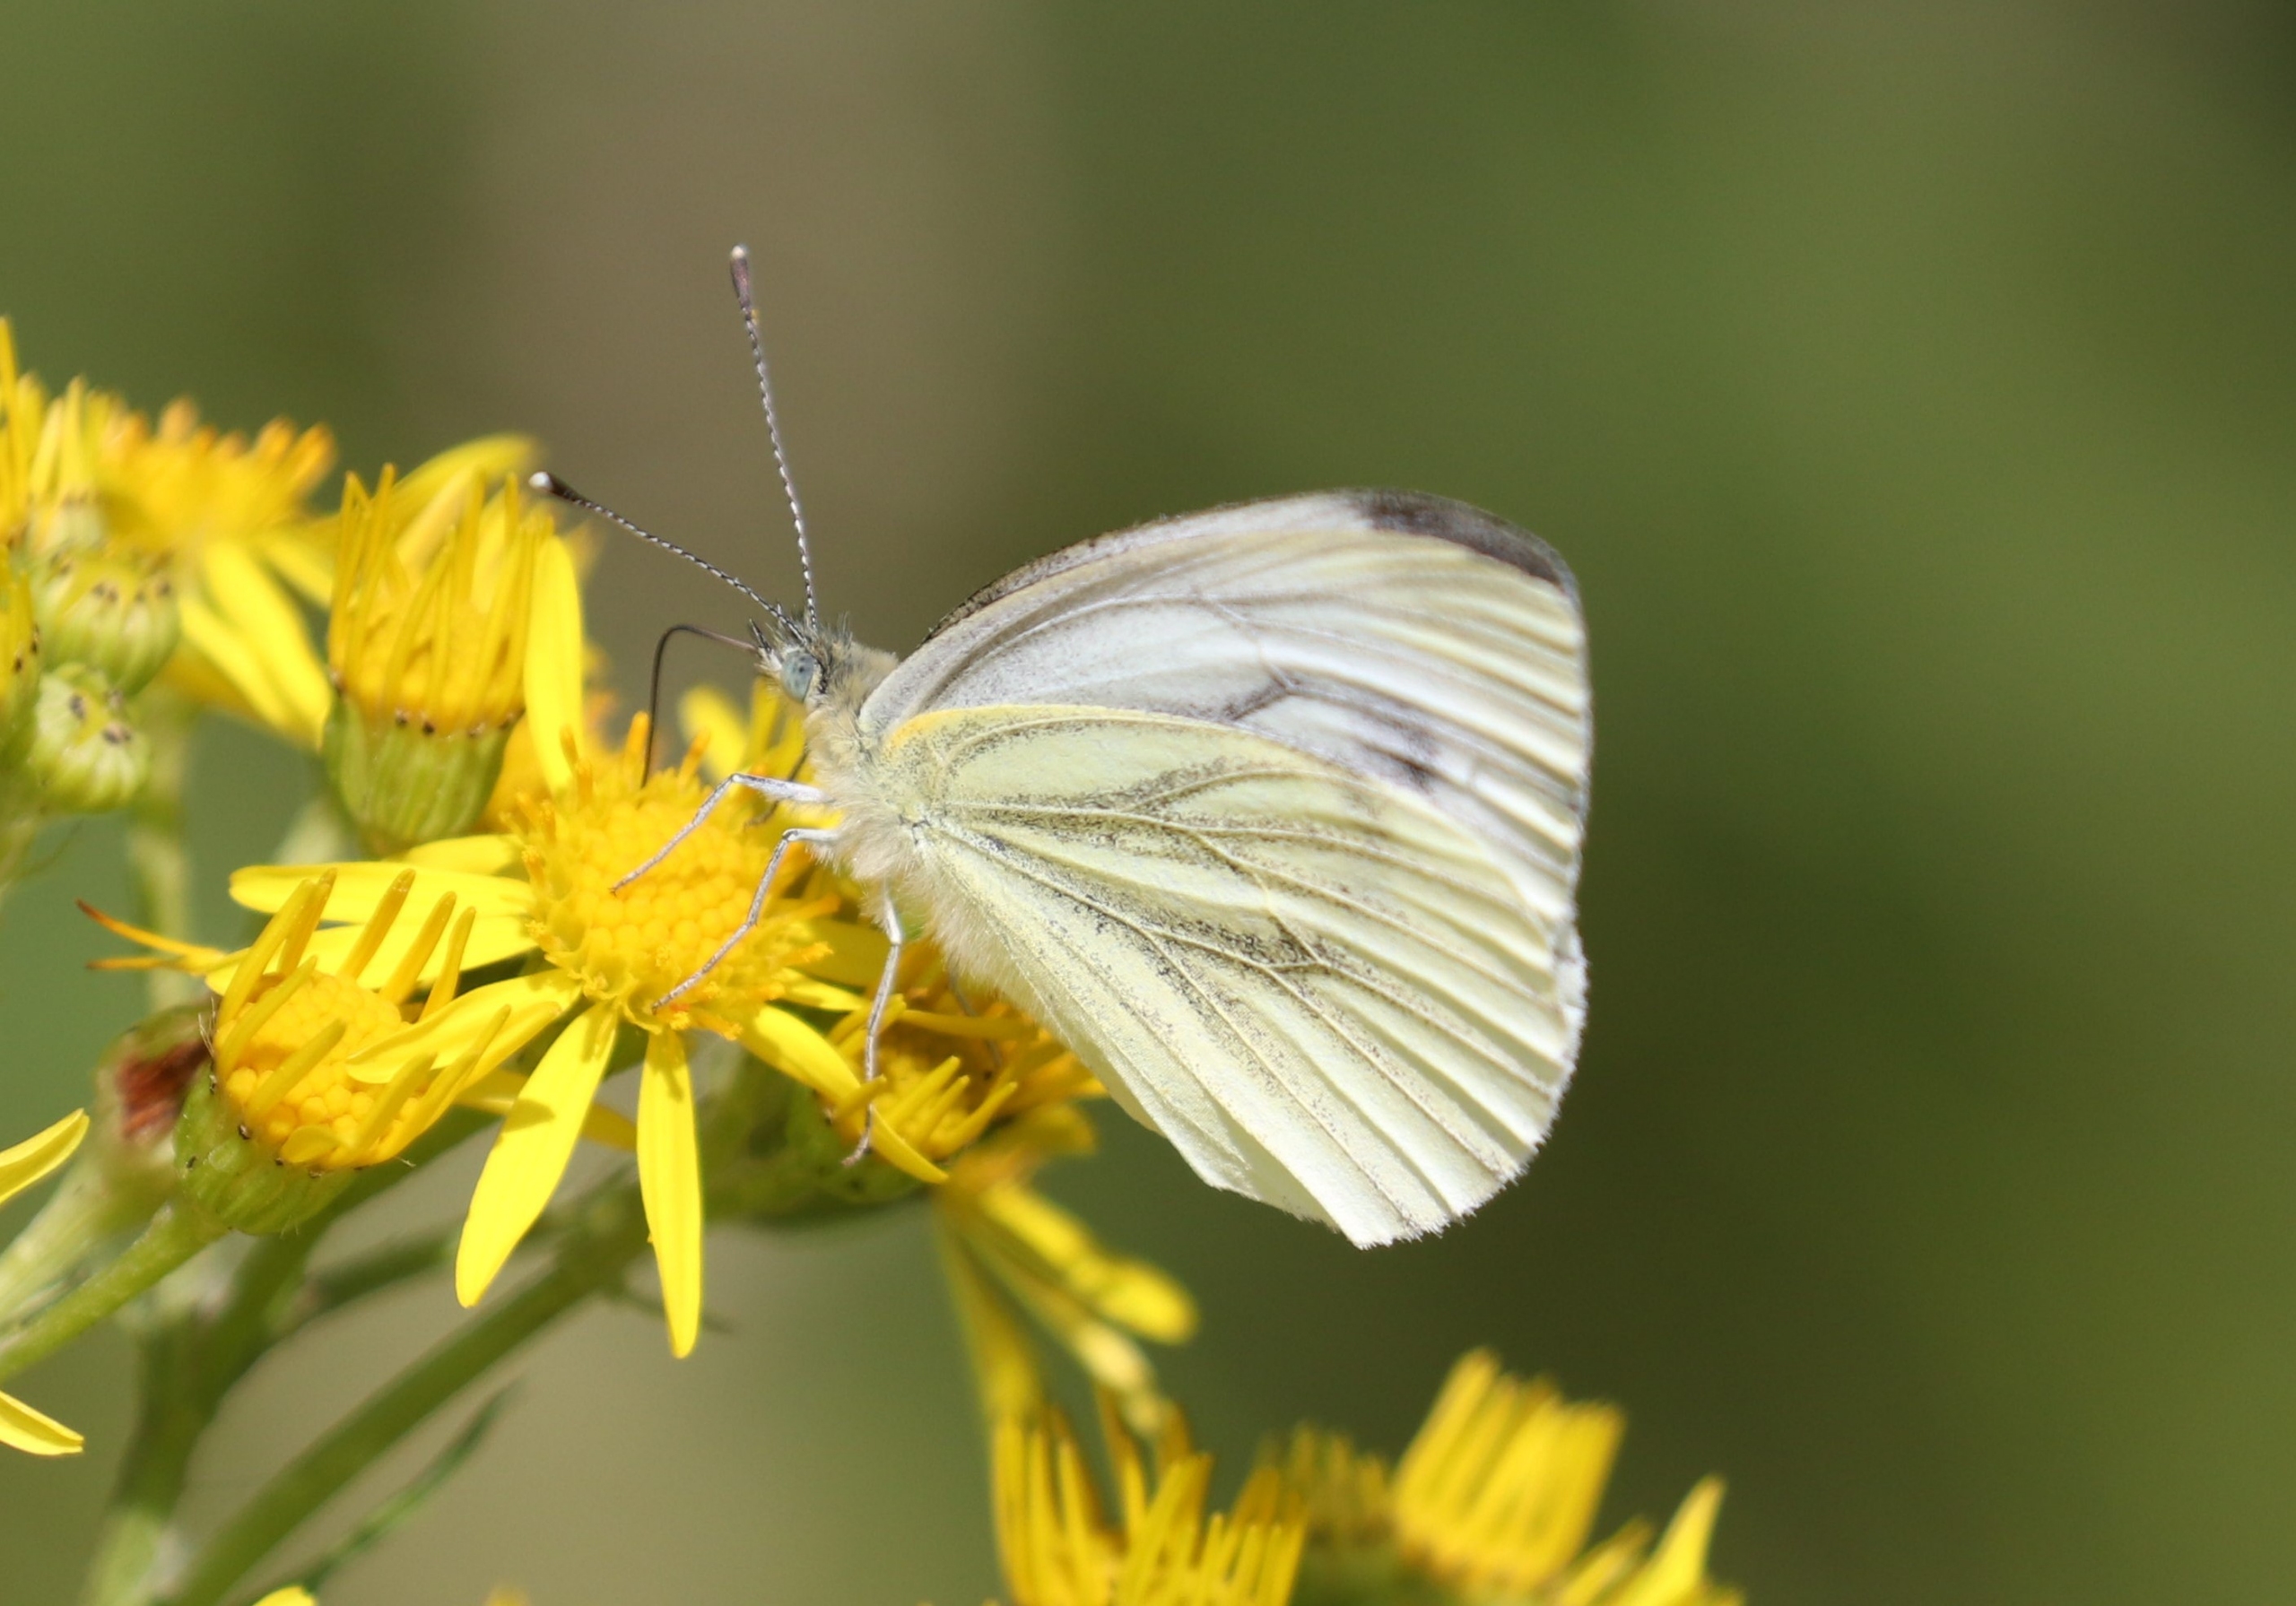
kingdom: Animalia
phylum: Arthropoda
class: Insecta
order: Lepidoptera
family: Pieridae
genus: Pieris
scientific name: Pieris napi
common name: Grønåret kålsommerfugl
